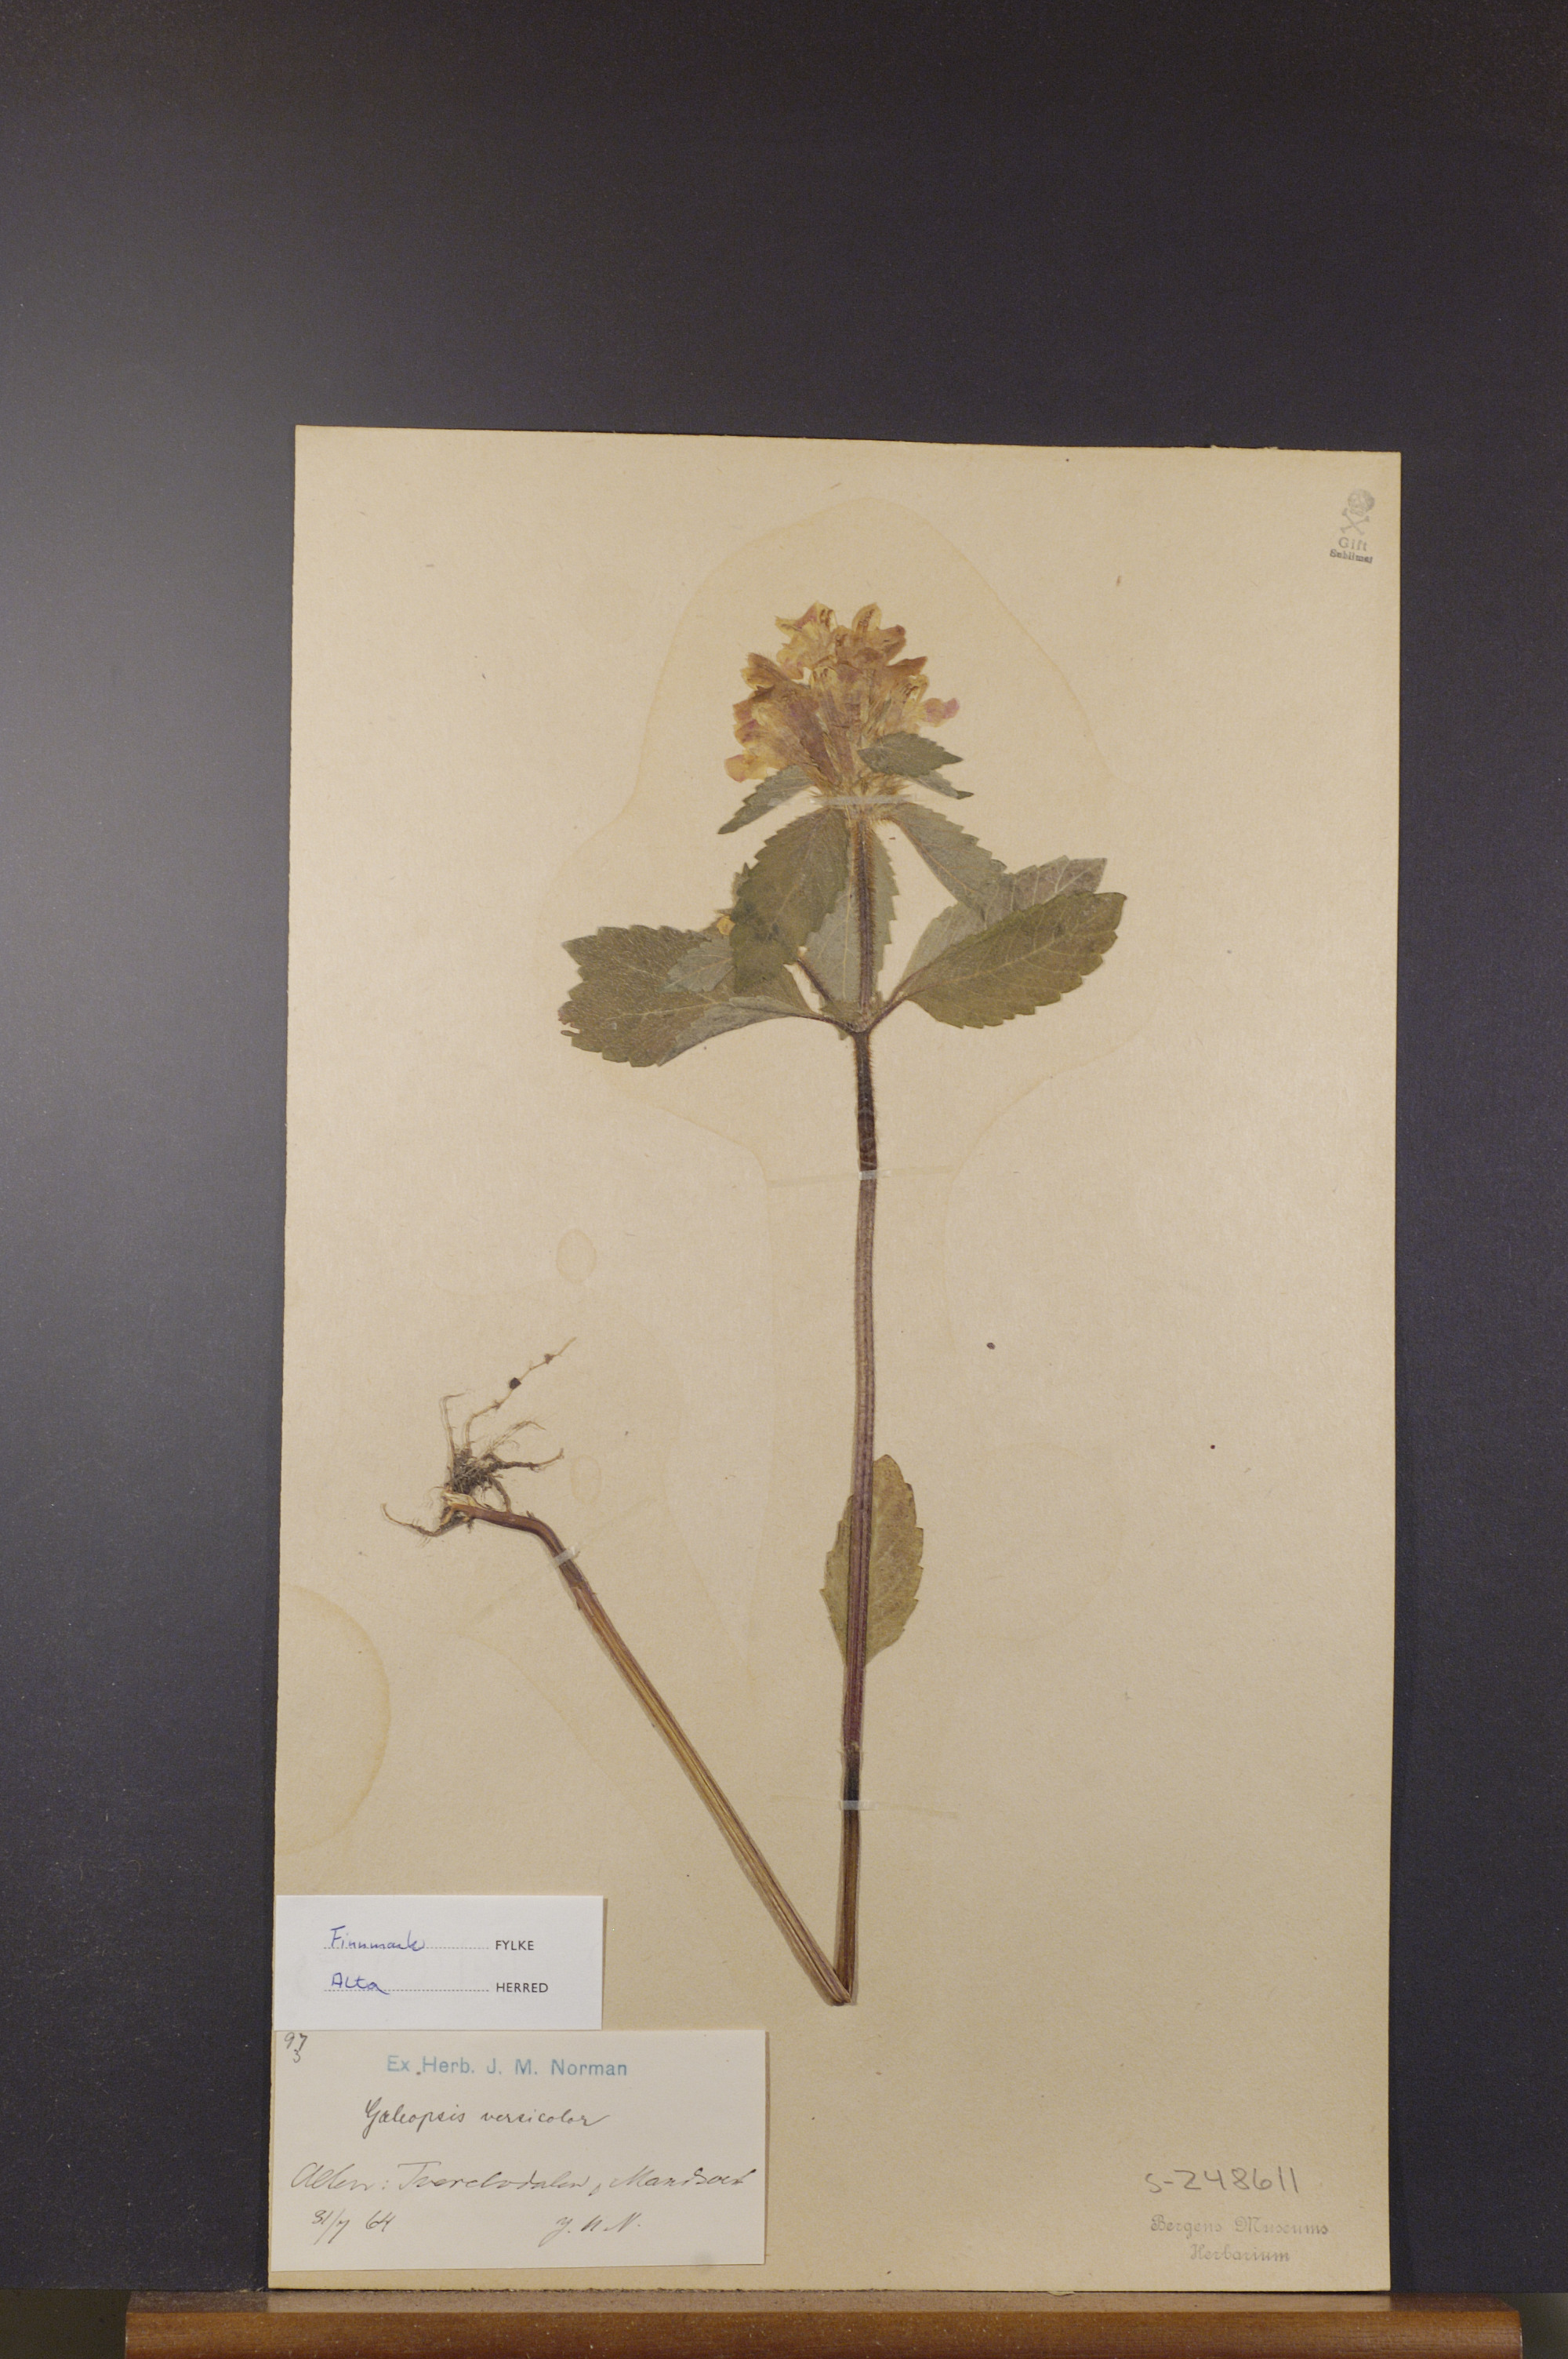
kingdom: Plantae
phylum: Tracheophyta
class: Magnoliopsida
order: Lamiales
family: Lamiaceae
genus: Galeopsis
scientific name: Galeopsis speciosa
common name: Large-flowered hemp-nettle
